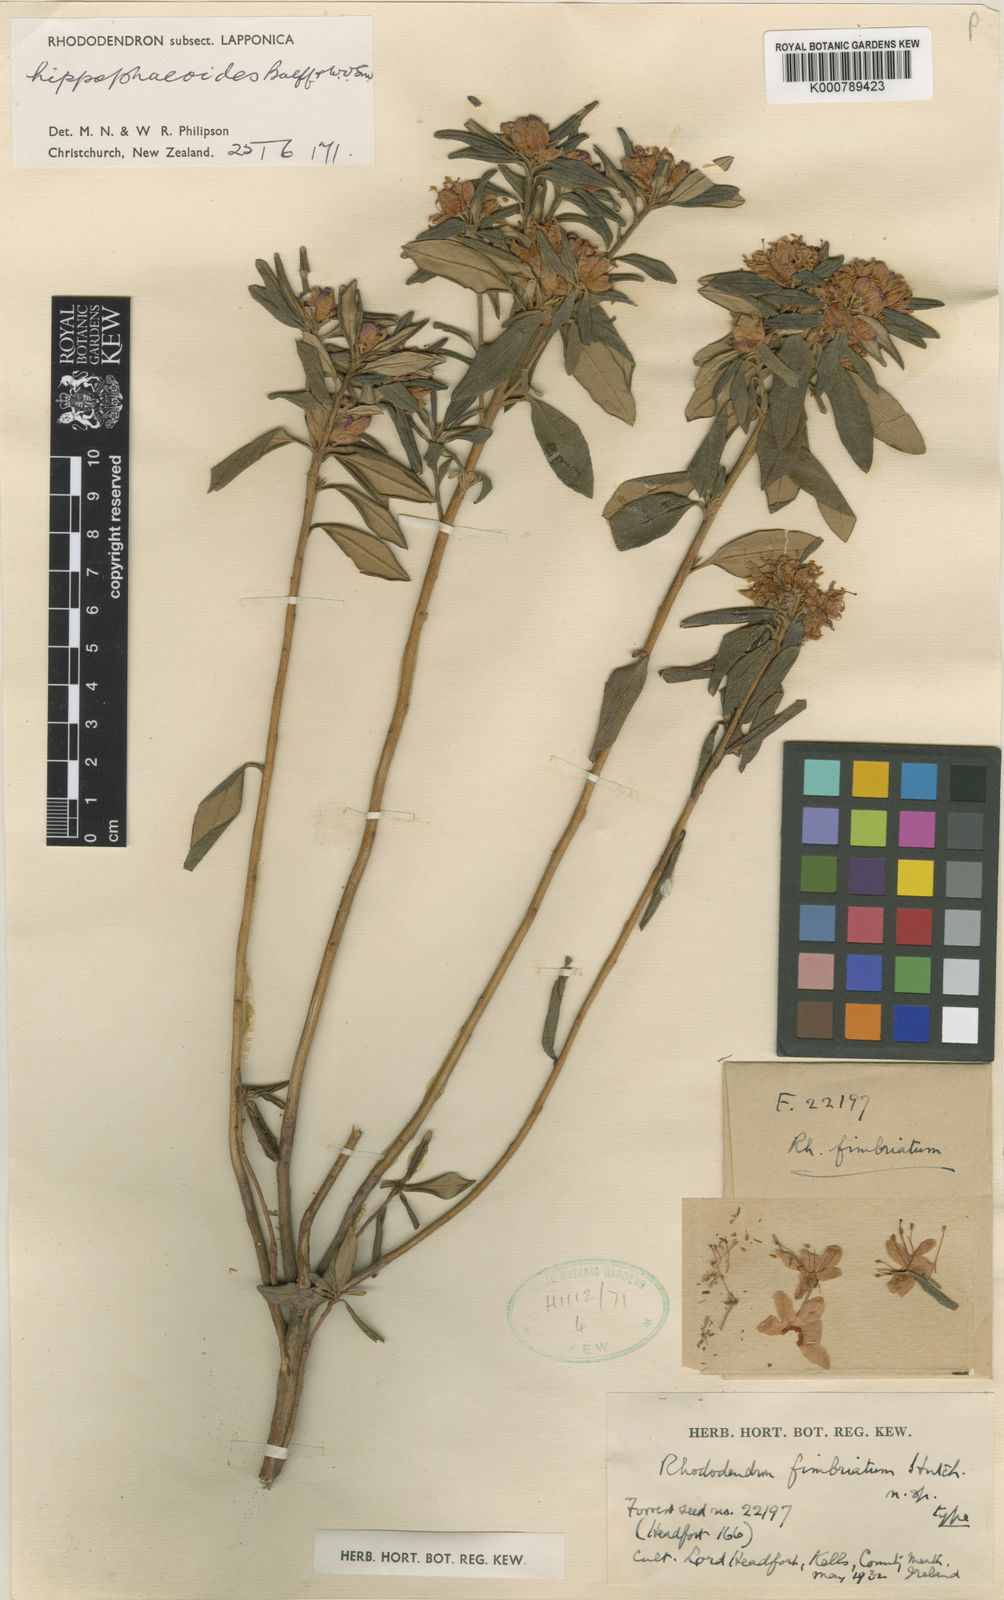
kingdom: Plantae
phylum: Tracheophyta
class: Magnoliopsida
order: Ericales
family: Ericaceae
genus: Rhododendron
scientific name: Rhododendron hippophaeoides
